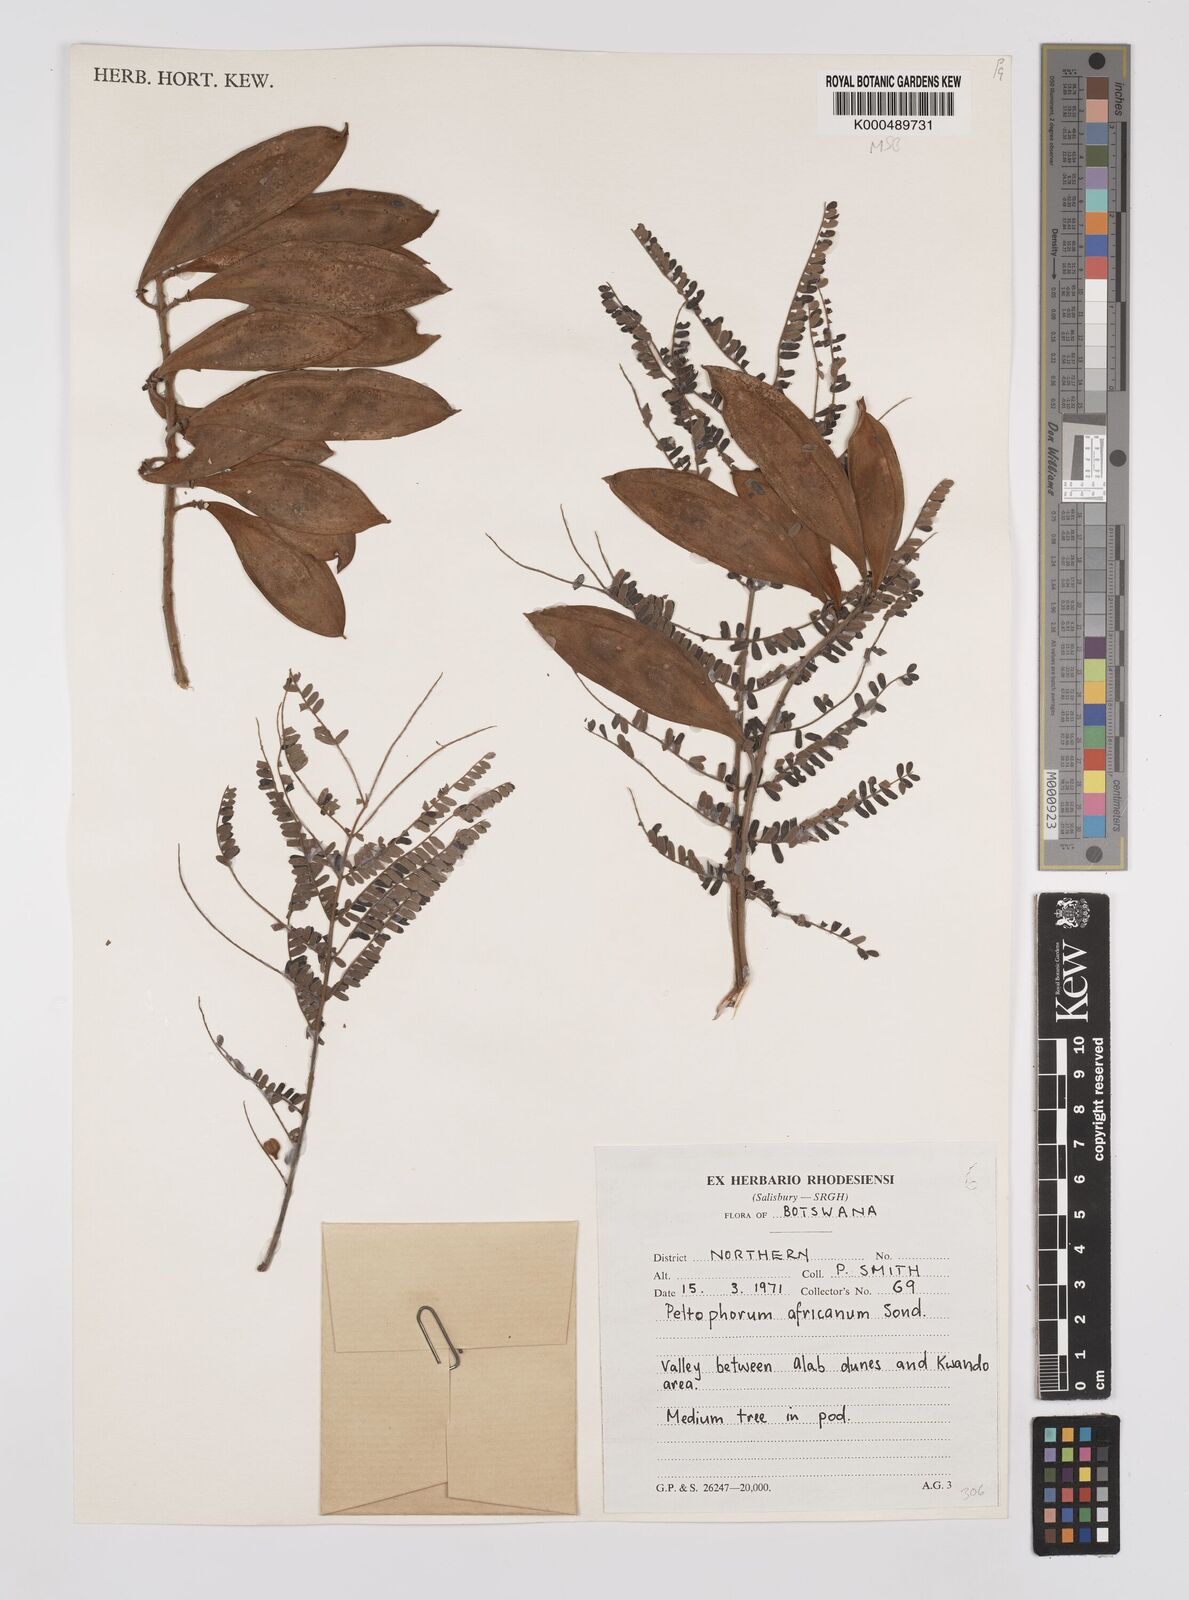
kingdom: Plantae
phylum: Tracheophyta
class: Magnoliopsida
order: Fabales
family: Fabaceae
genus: Peltophorum
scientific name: Peltophorum africanum
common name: African black wattle
